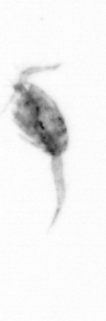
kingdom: Animalia
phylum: Arthropoda
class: Copepoda
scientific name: Copepoda
